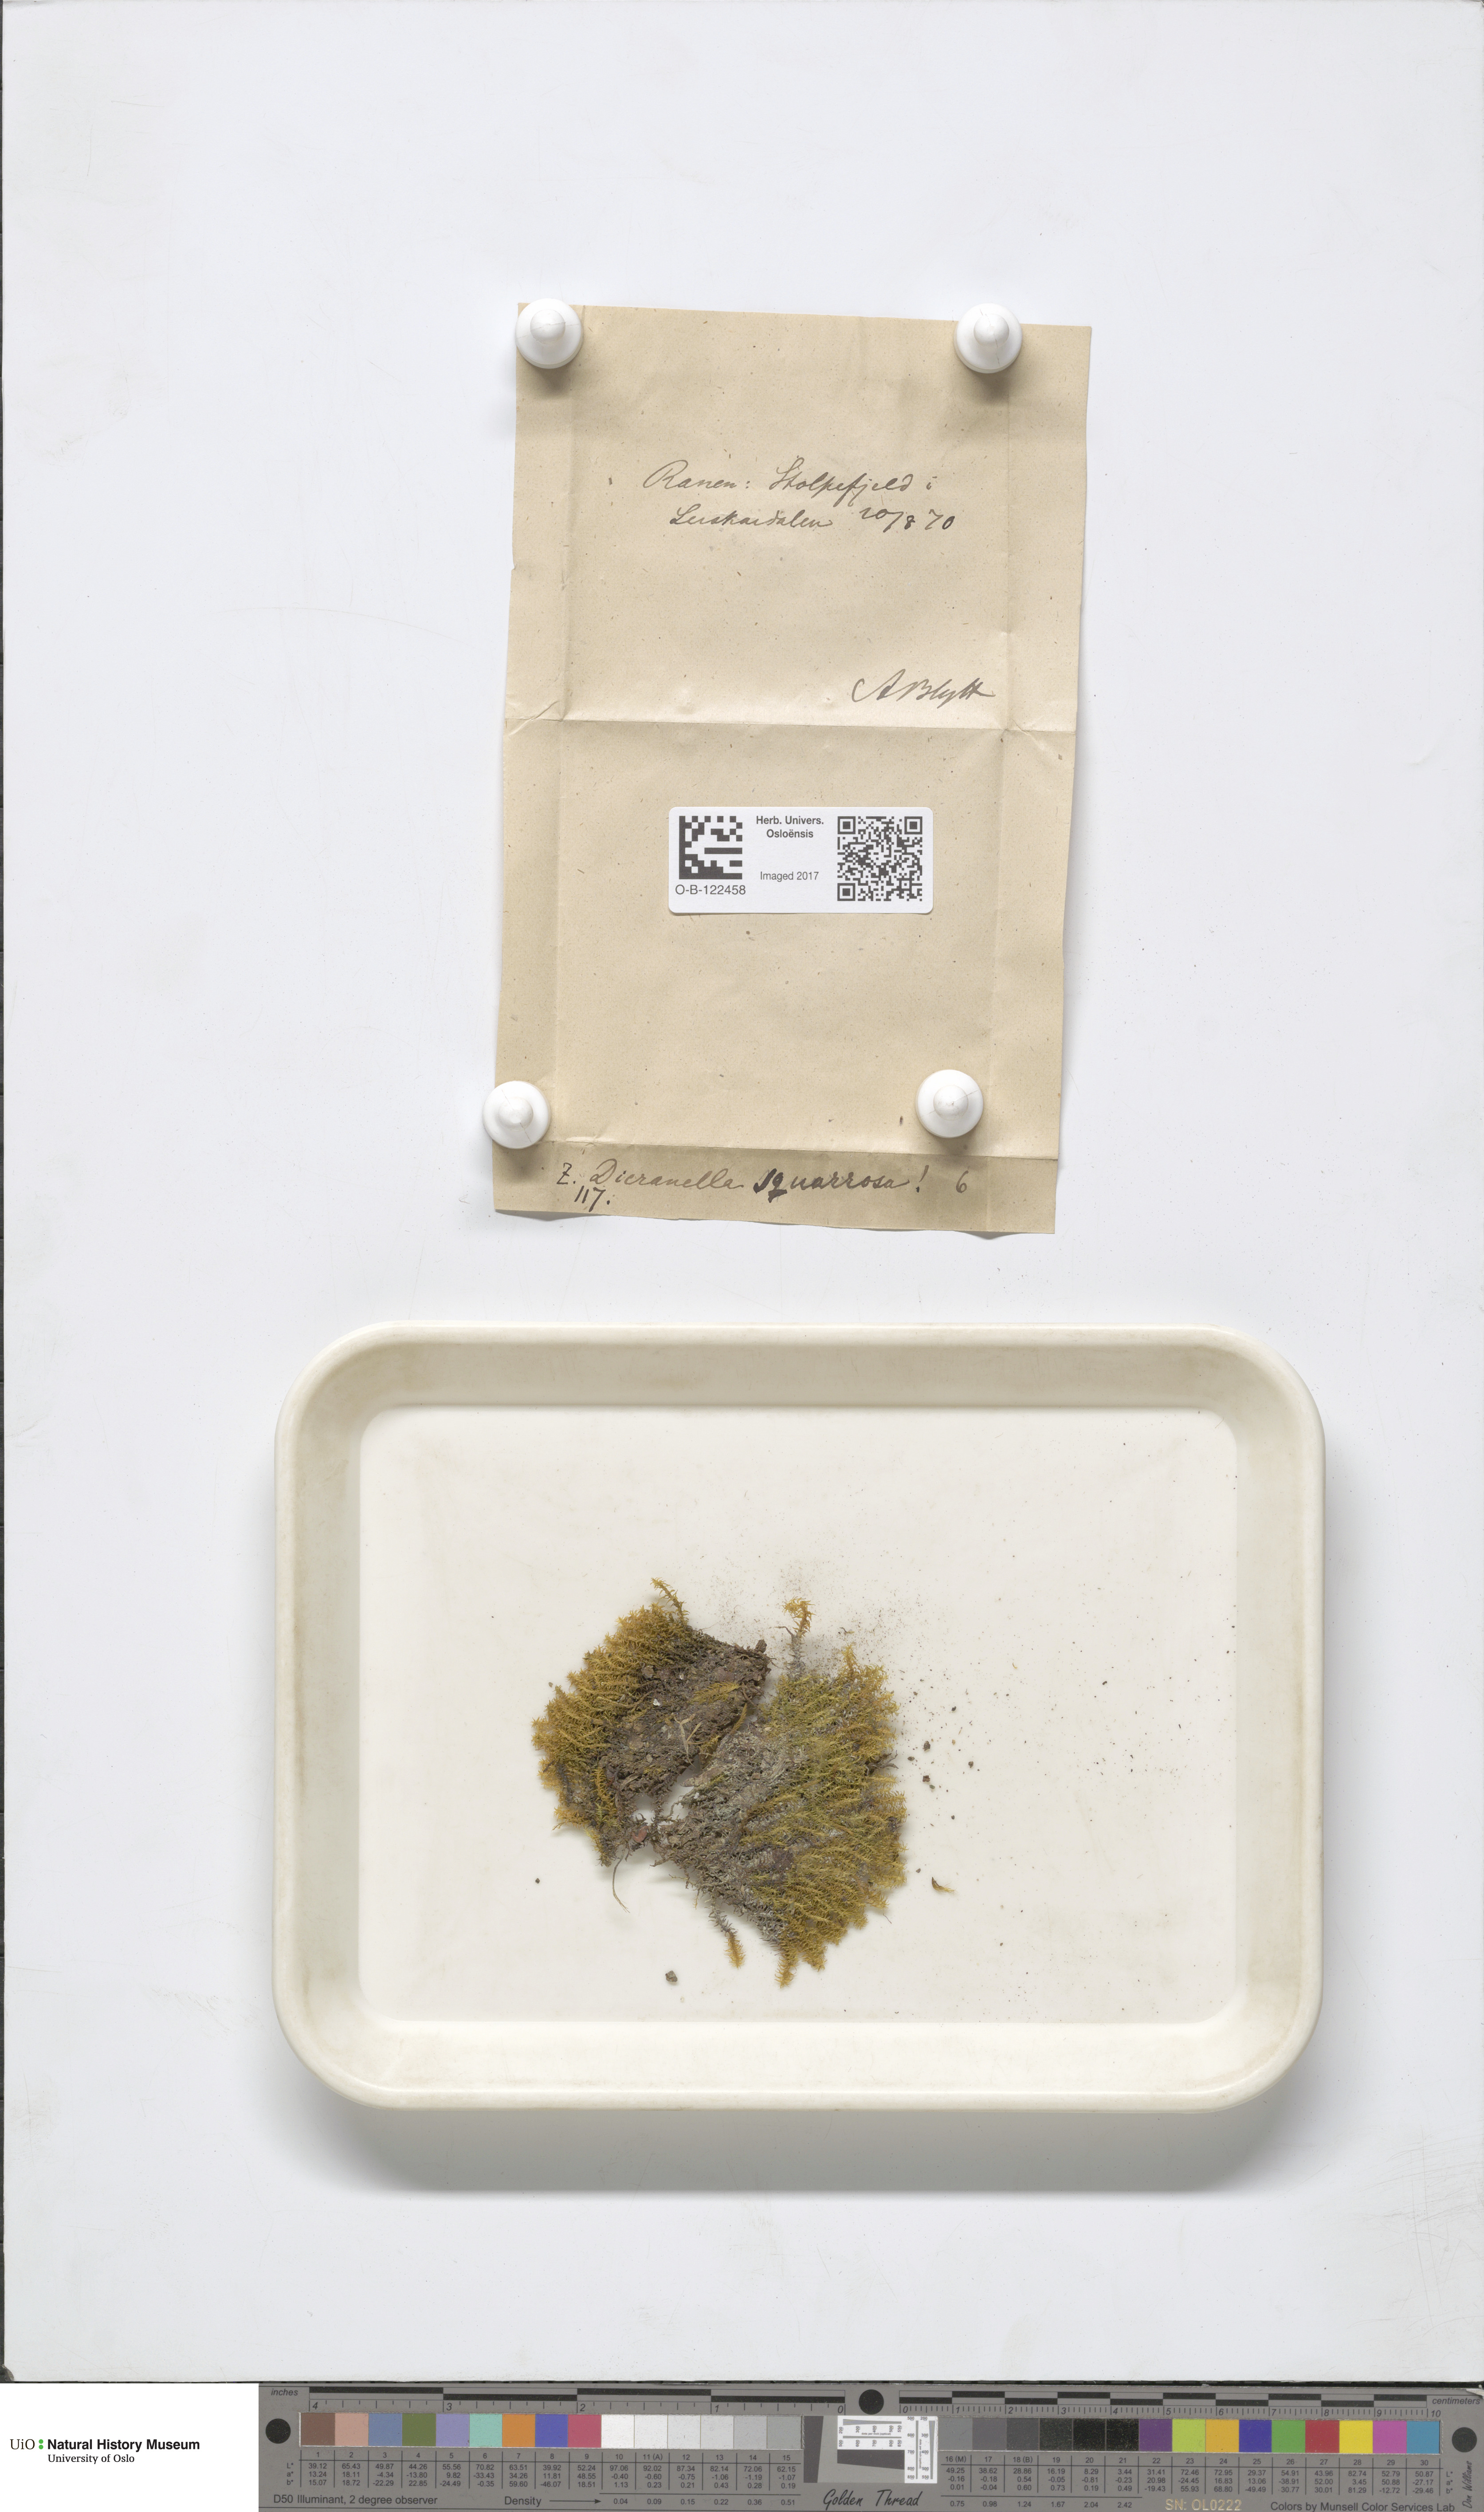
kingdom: Plantae
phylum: Bryophyta
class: Bryopsida
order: Dicranales
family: Aongstroemiaceae
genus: Diobelonella
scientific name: Diobelonella palustris
